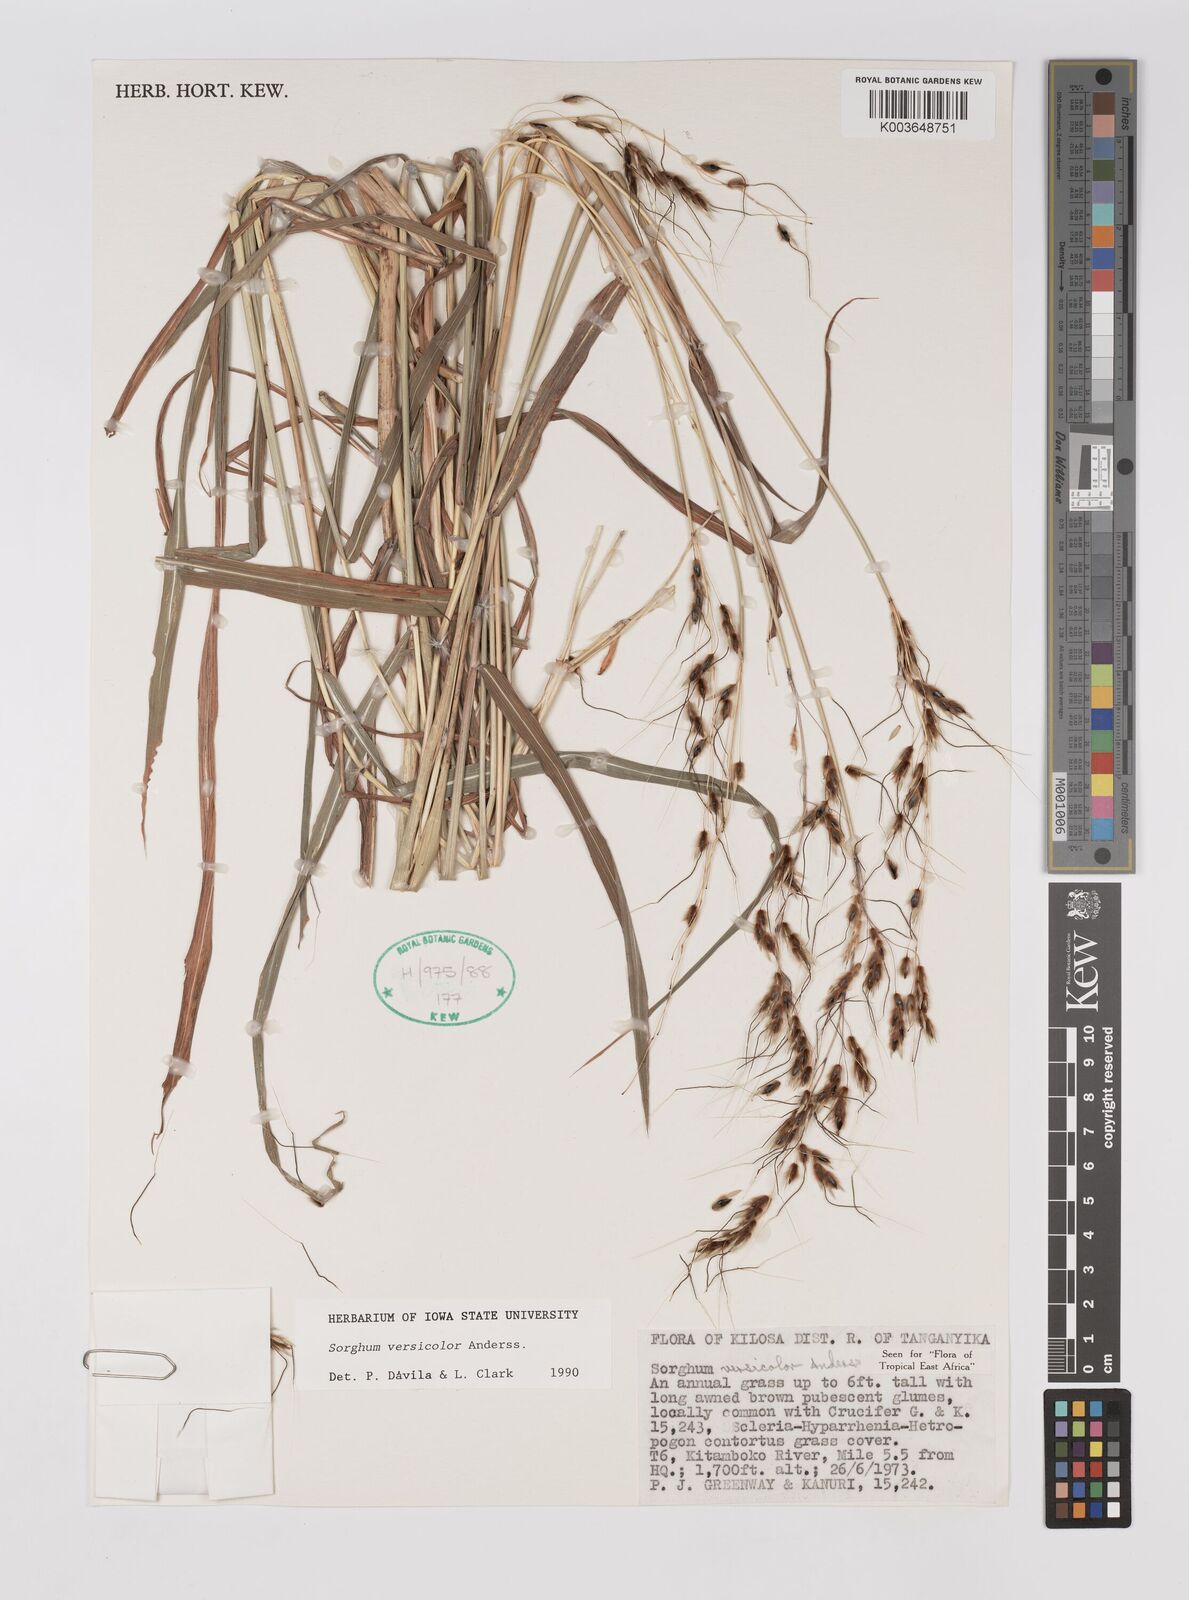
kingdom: Plantae
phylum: Tracheophyta
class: Liliopsida
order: Poales
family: Poaceae
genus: Sarga
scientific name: Sarga versicolor
